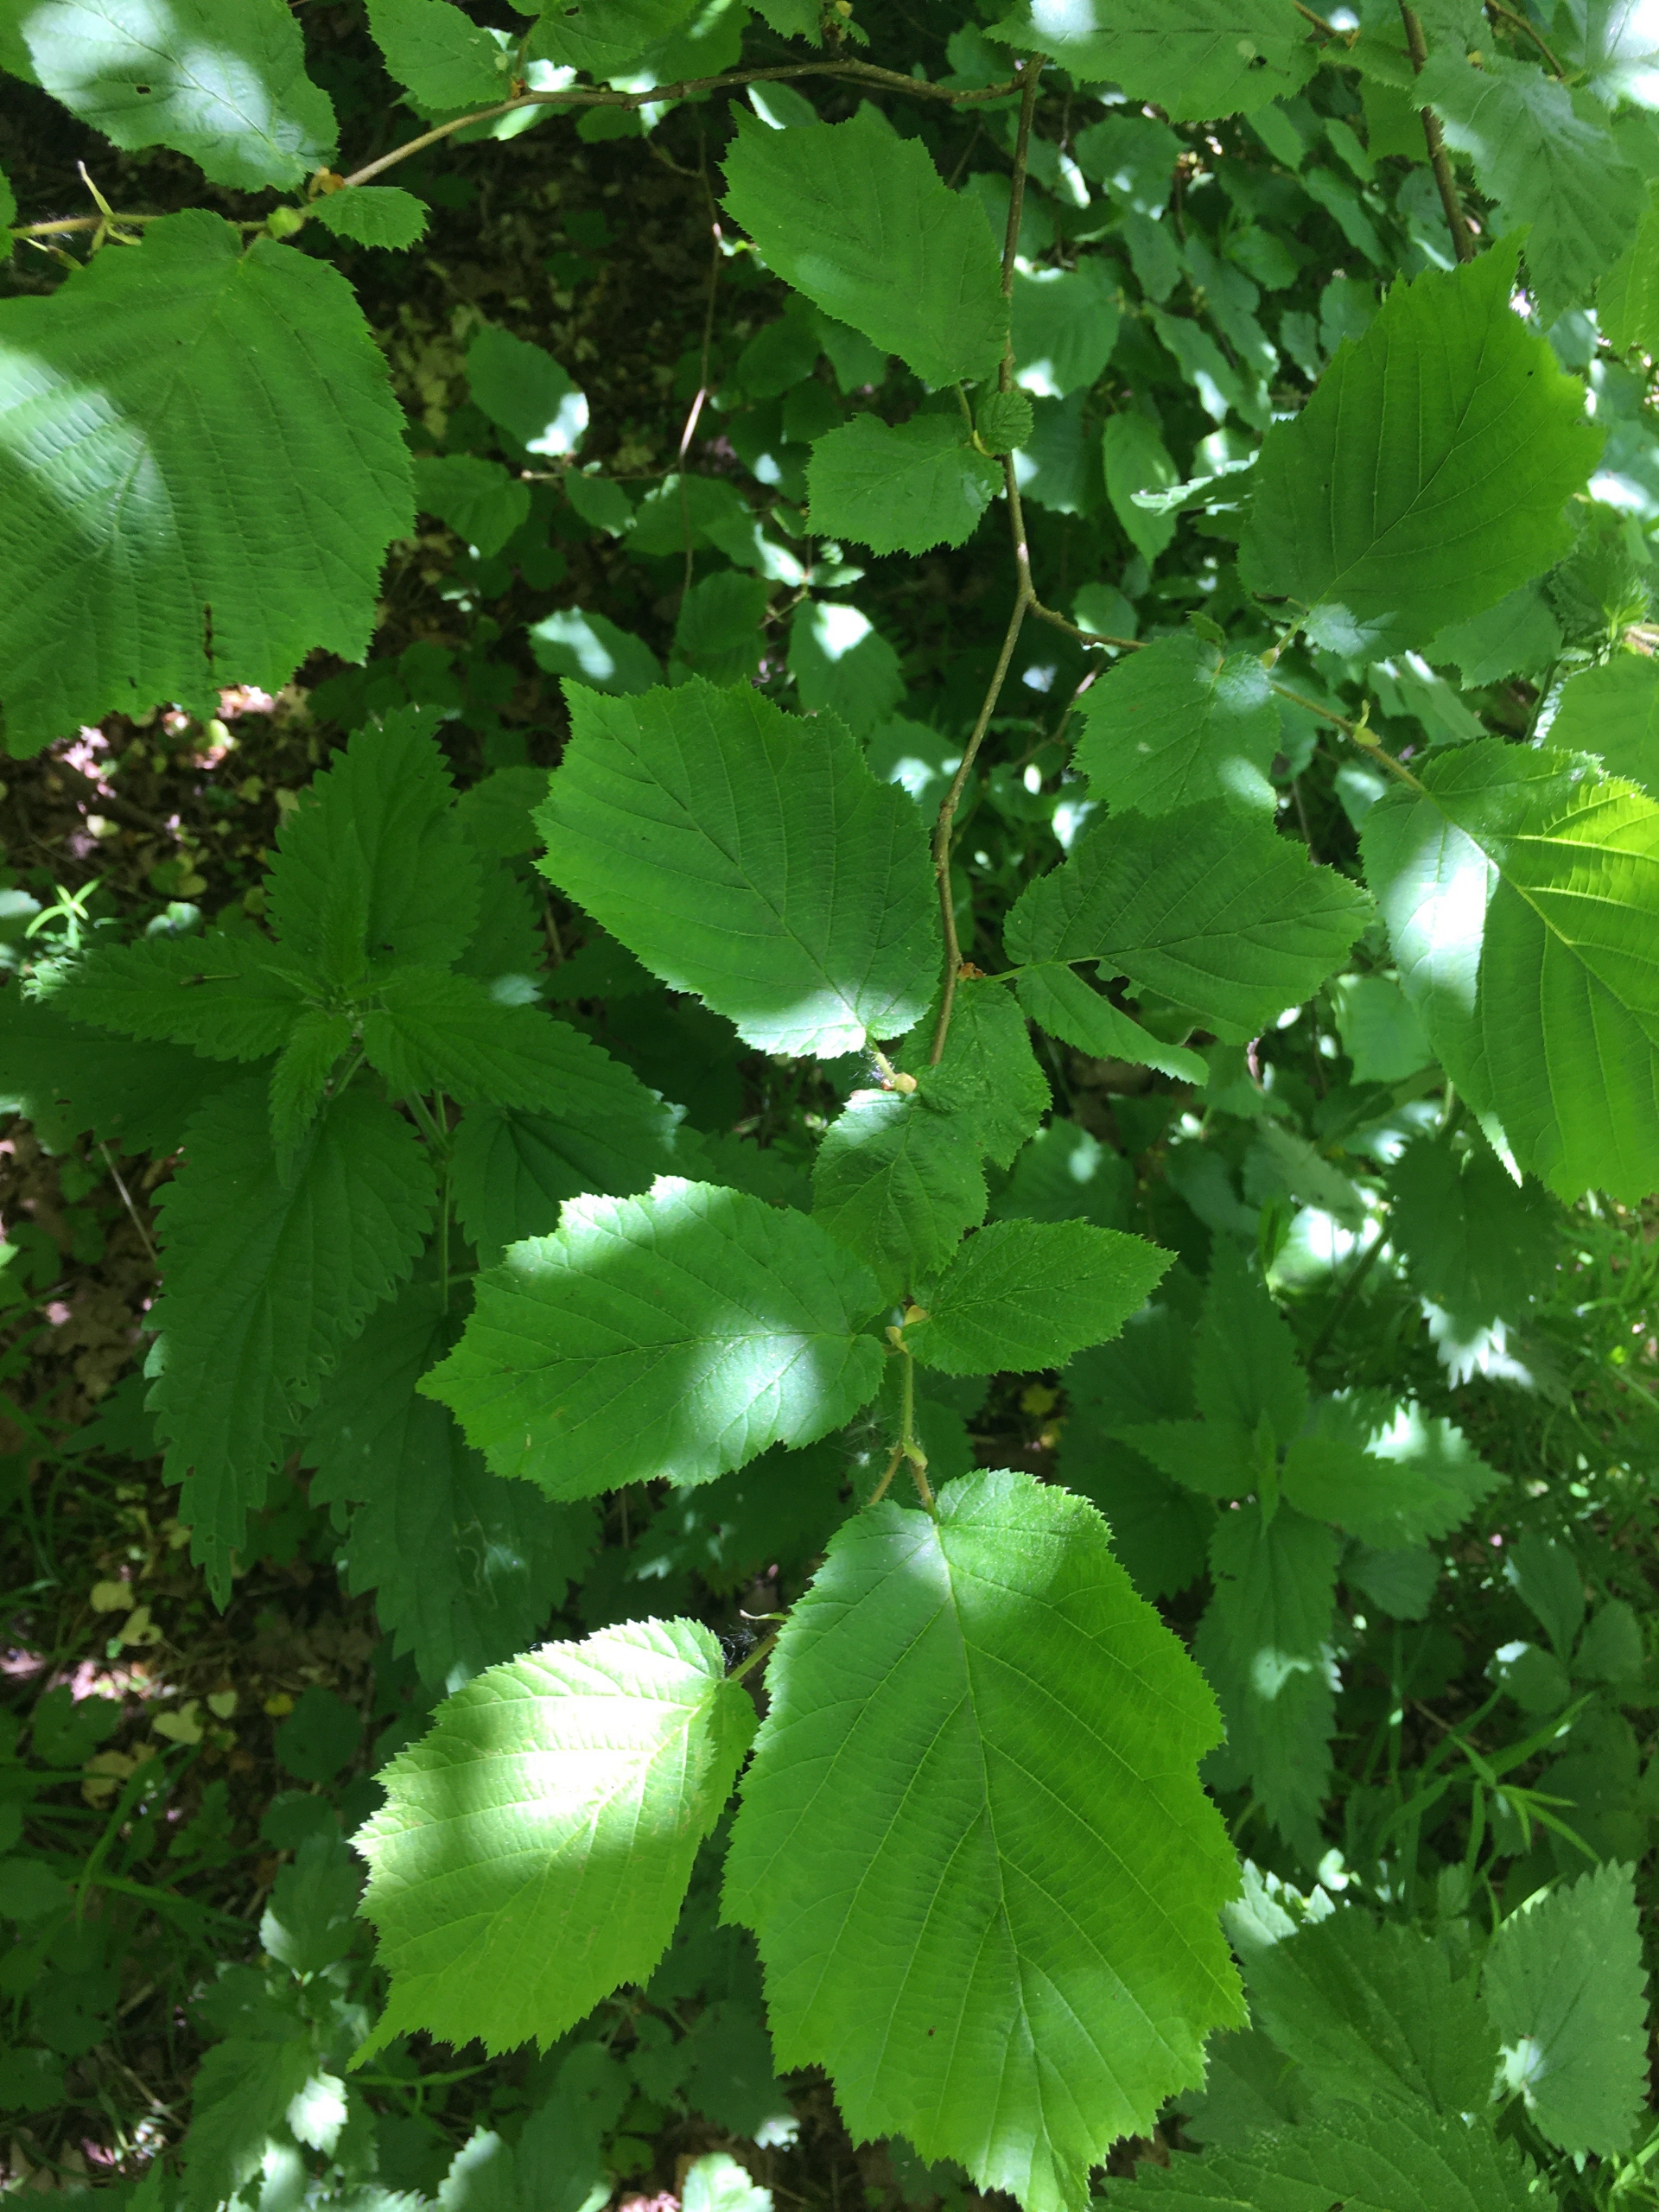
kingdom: Plantae
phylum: Tracheophyta
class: Magnoliopsida
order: Fagales
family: Betulaceae
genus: Corylus
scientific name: Corylus avellana
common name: Hassel
